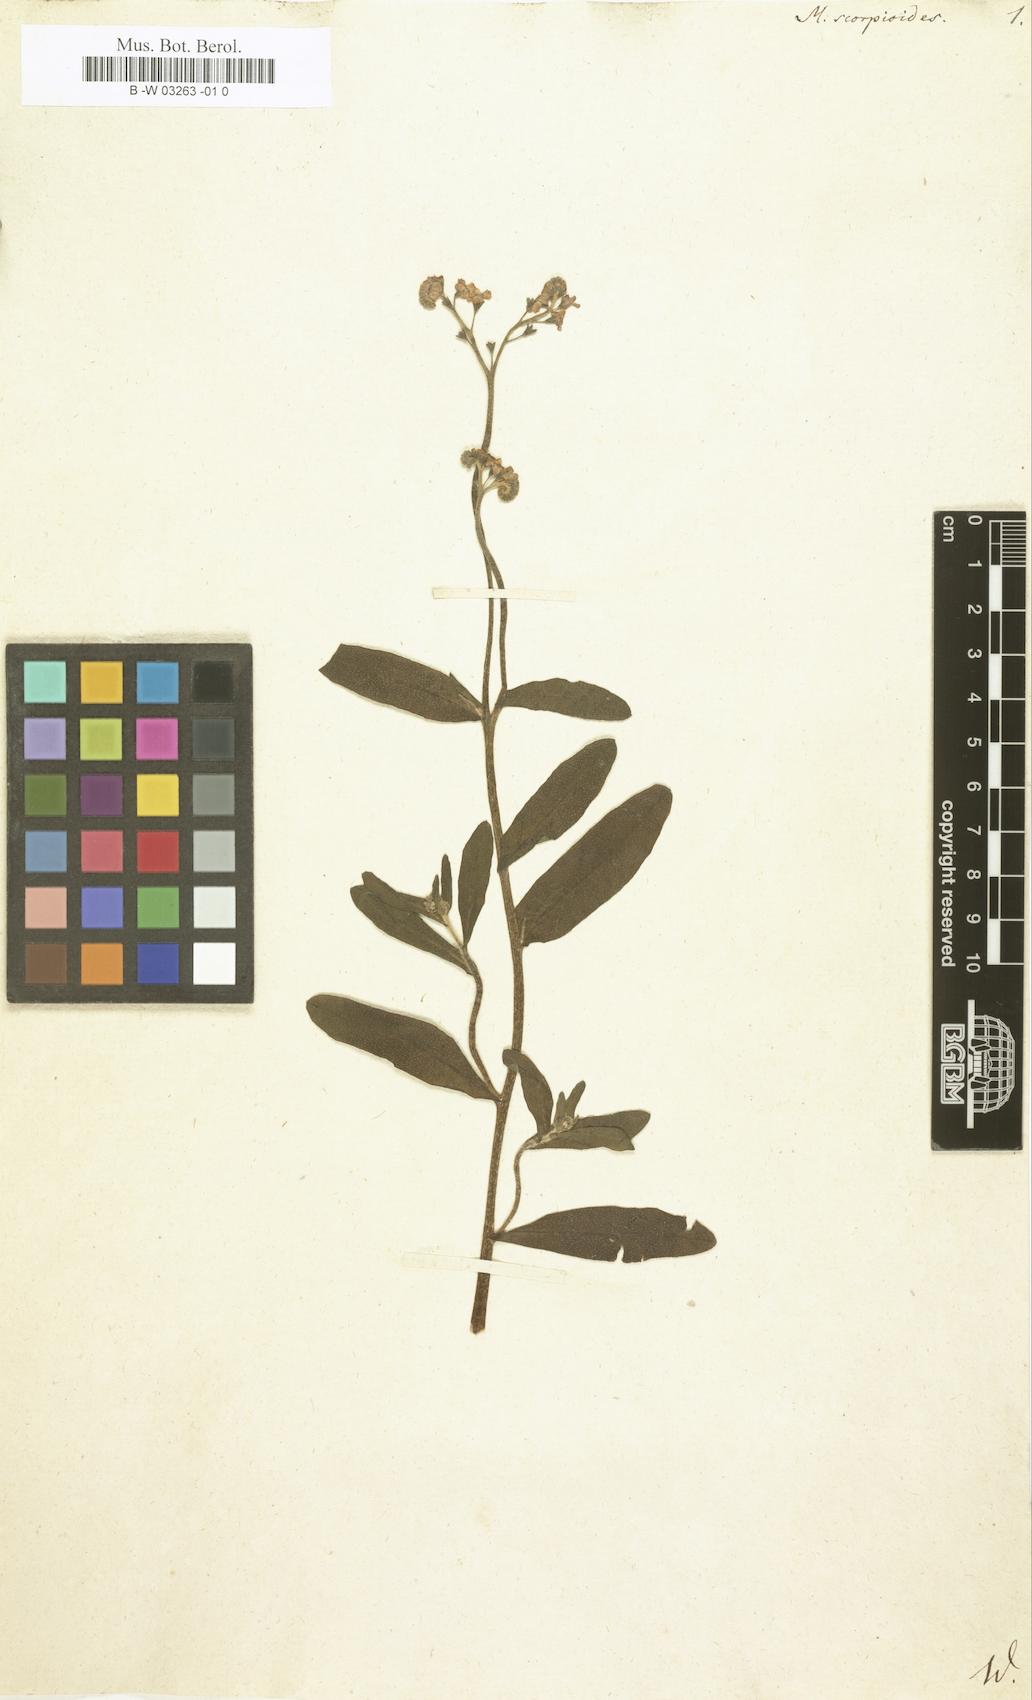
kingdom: Plantae
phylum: Tracheophyta
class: Magnoliopsida
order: Boraginales
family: Boraginaceae
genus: Myosotis
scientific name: Myosotis scorpioides
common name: Water forget-me-not
